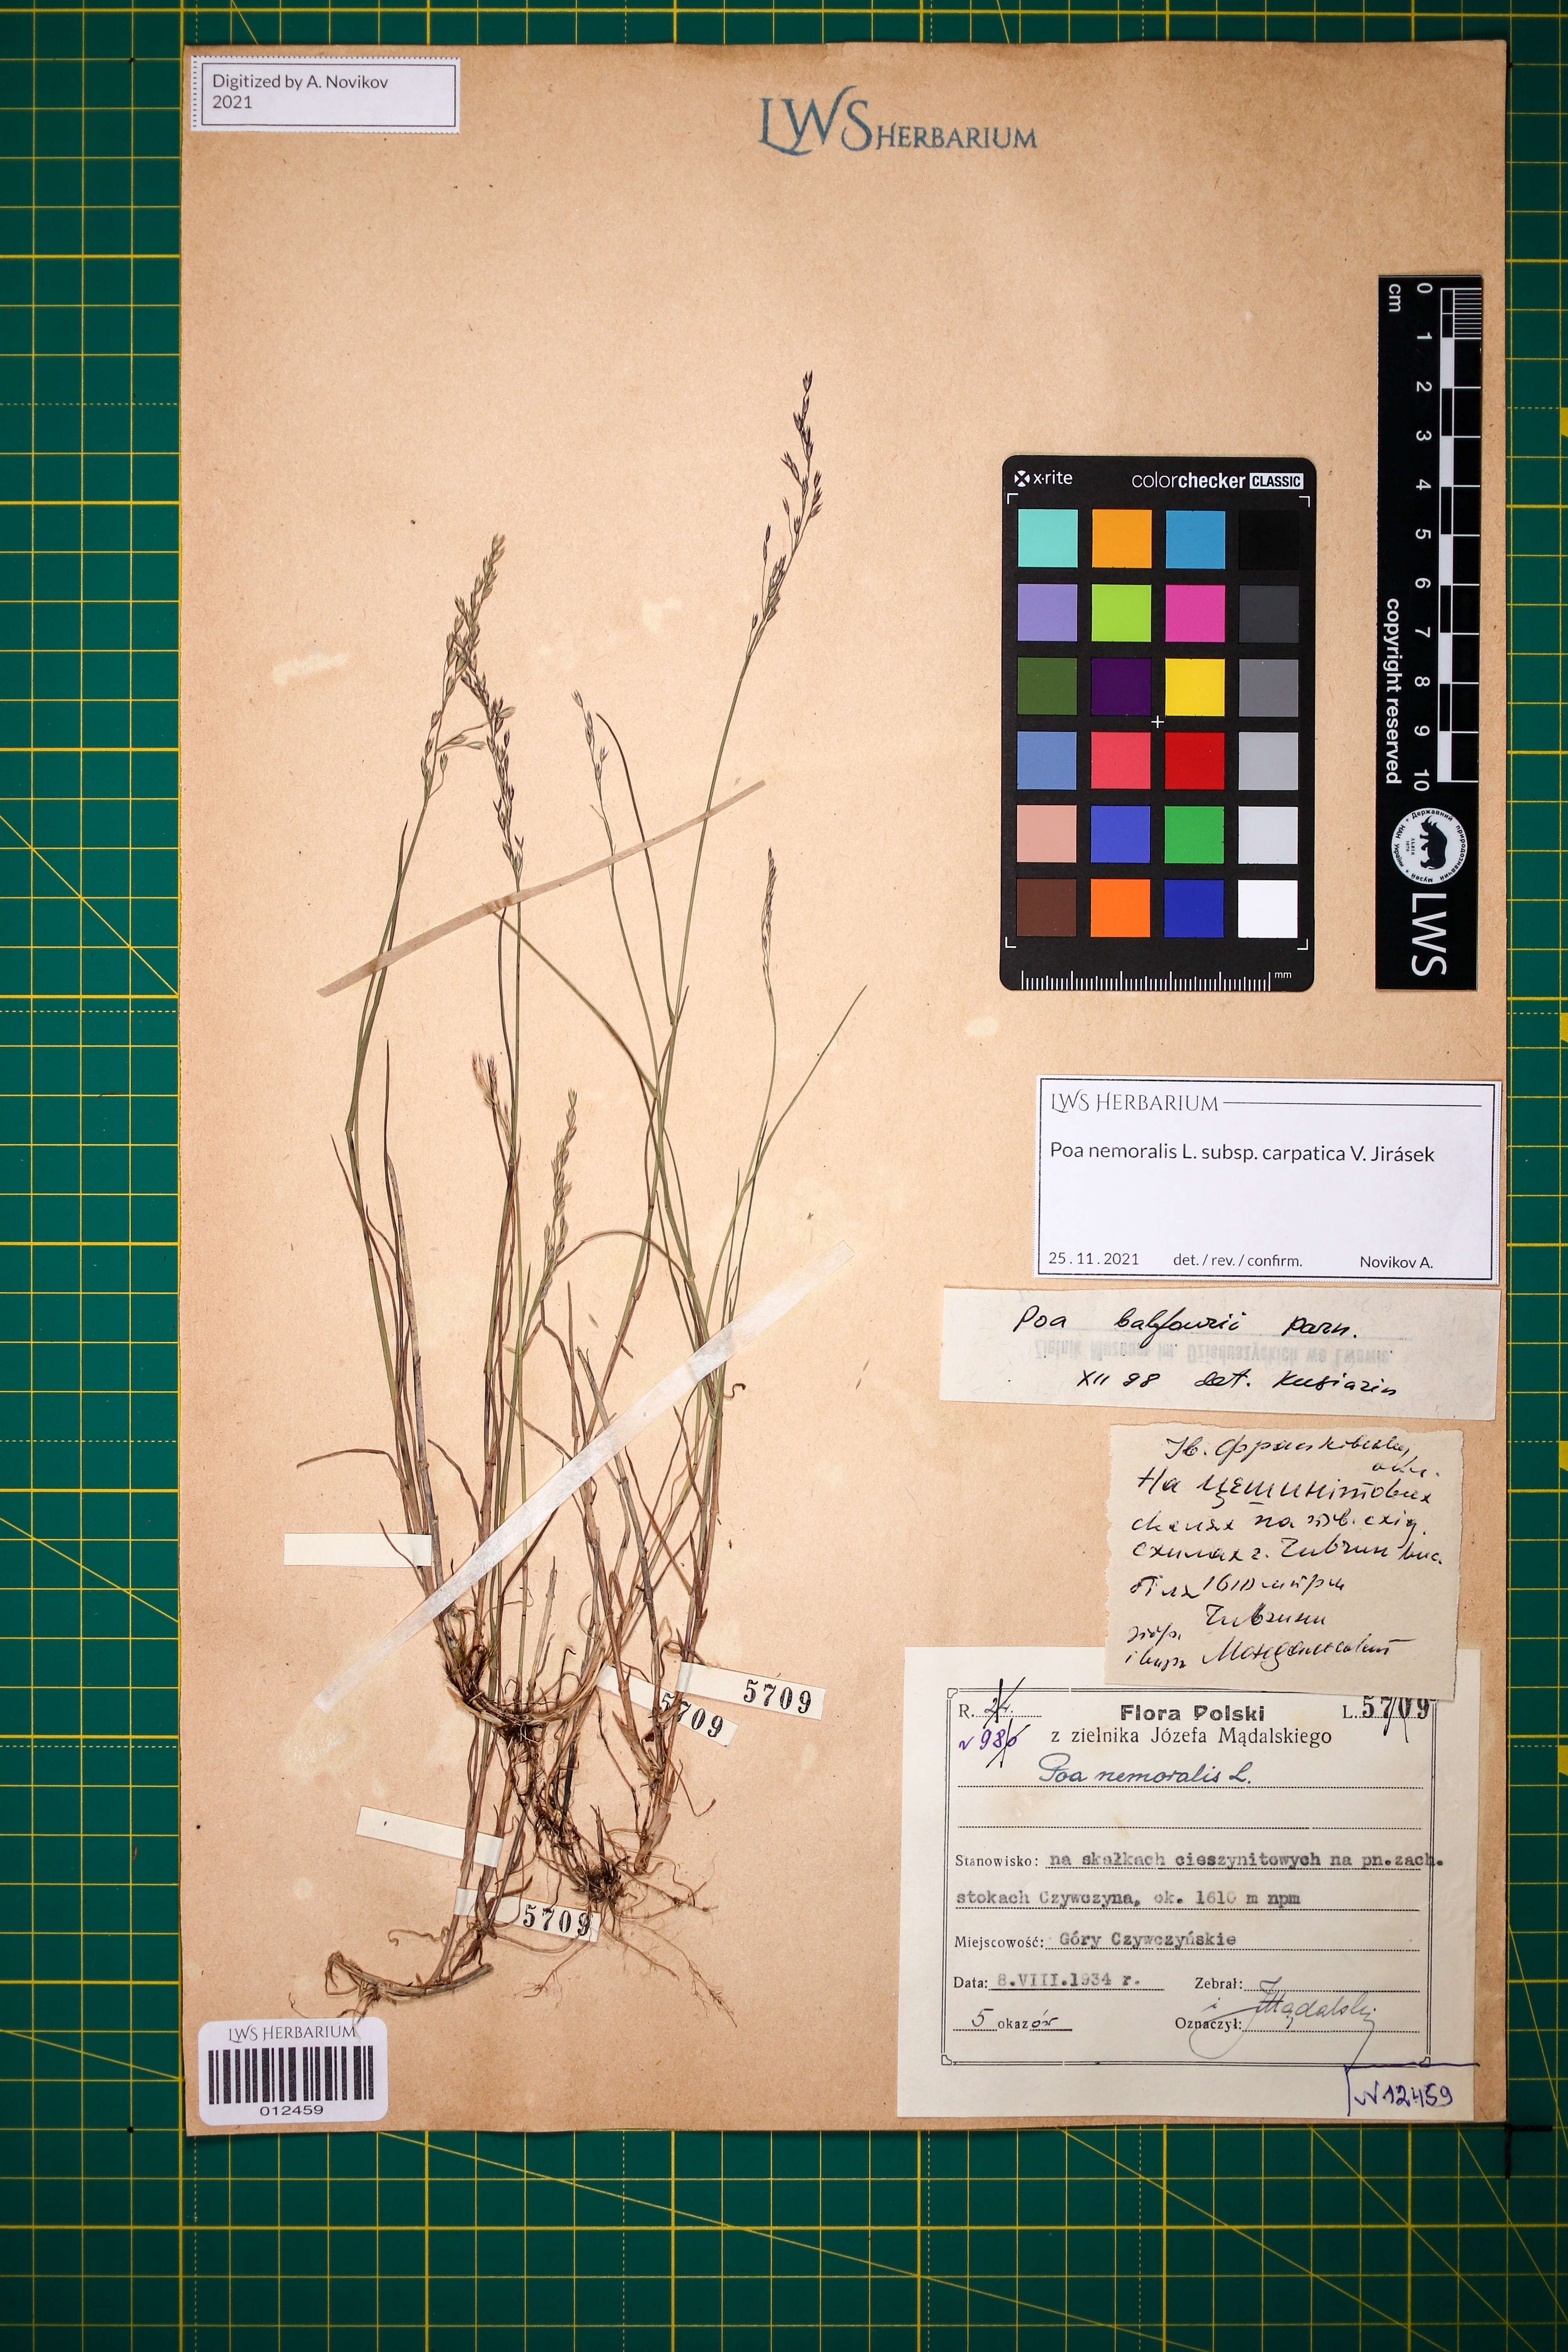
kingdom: Plantae
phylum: Tracheophyta
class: Liliopsida
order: Poales
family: Poaceae
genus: Poa
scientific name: Poa carpatica
